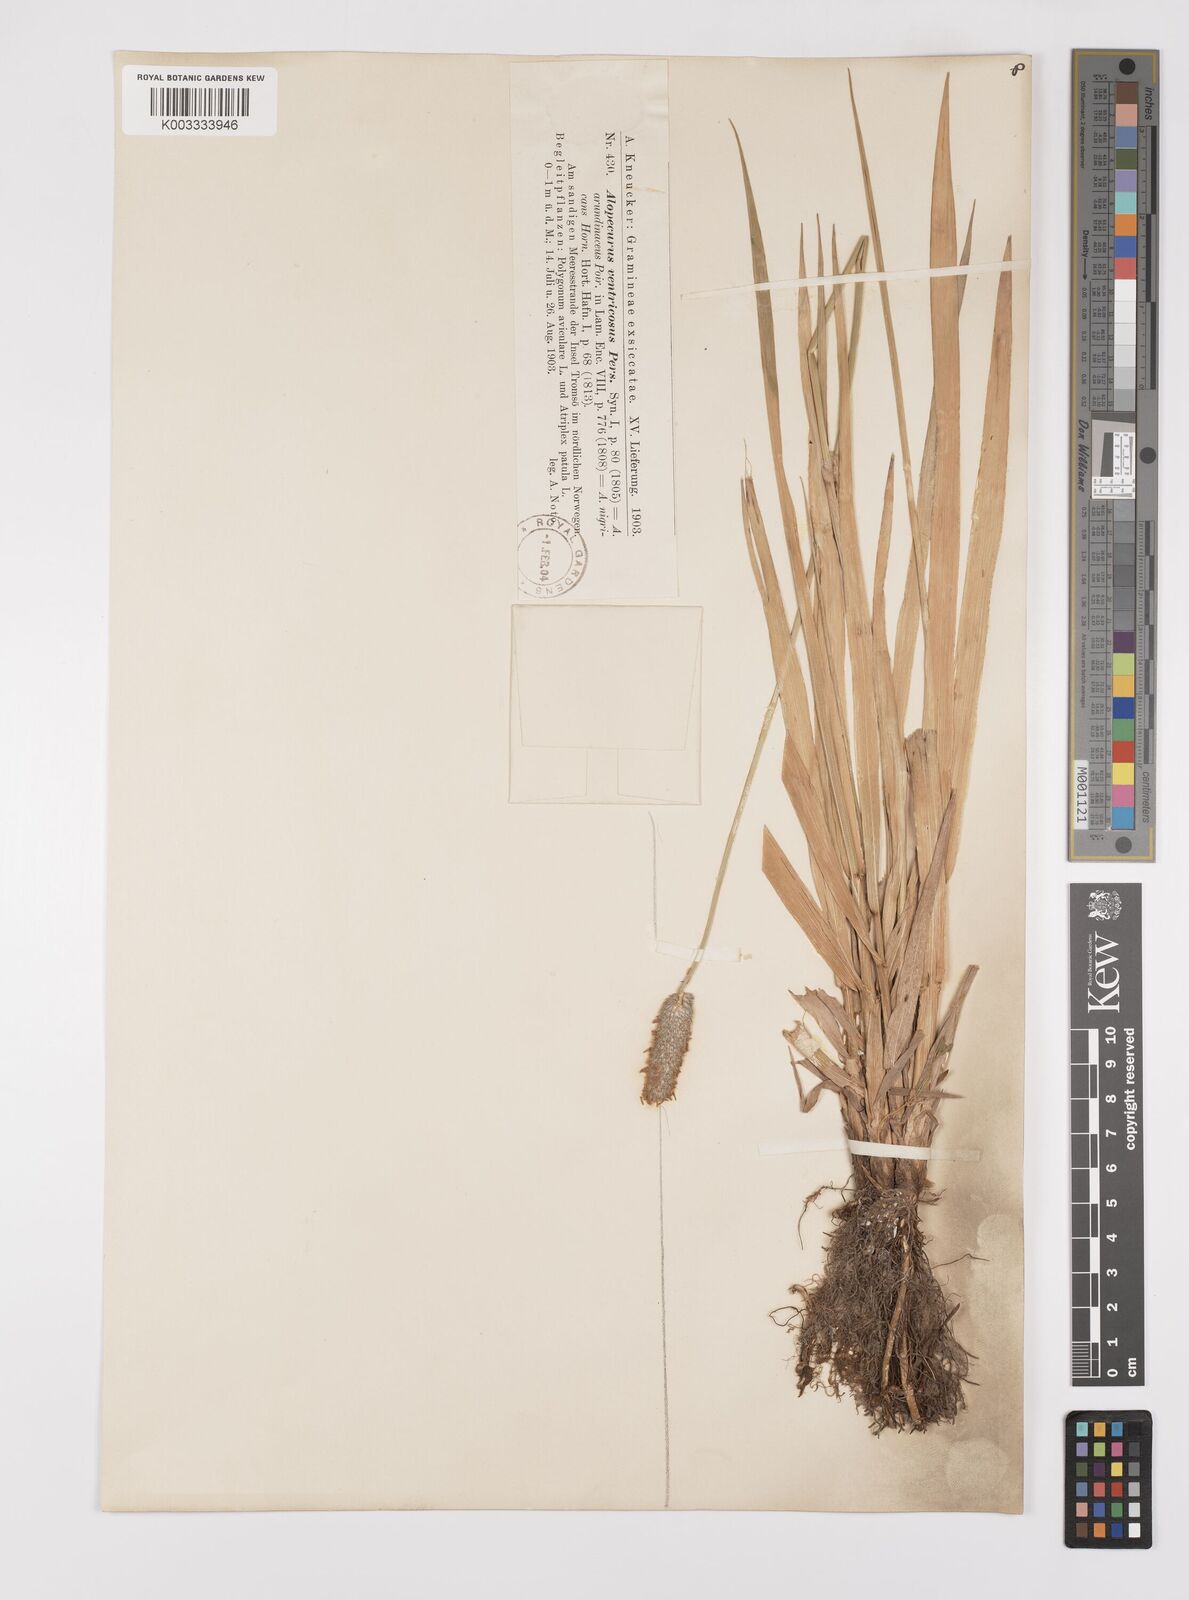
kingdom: Plantae
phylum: Tracheophyta
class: Liliopsida
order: Poales
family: Poaceae
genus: Alopecurus
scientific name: Alopecurus arundinaceus
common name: Creeping meadow foxtail
